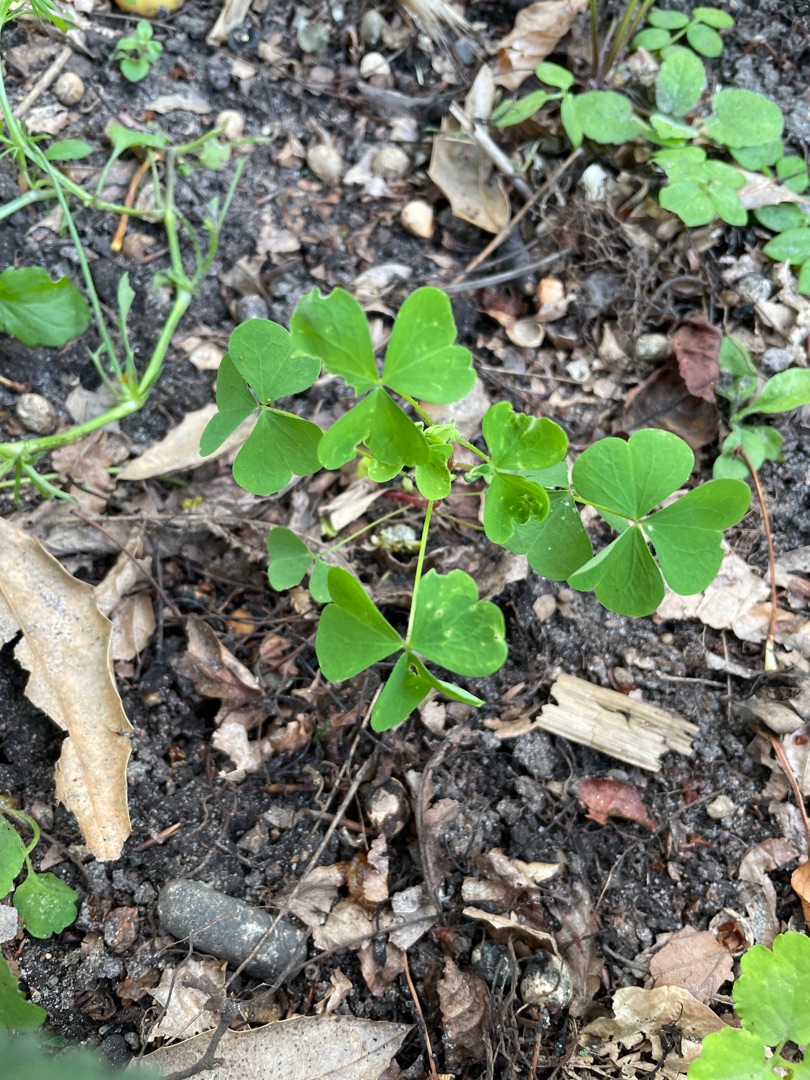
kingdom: Plantae
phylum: Tracheophyta
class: Magnoliopsida
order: Oxalidales
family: Oxalidaceae
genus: Oxalis
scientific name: Oxalis stricta
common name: Rank surkløver
